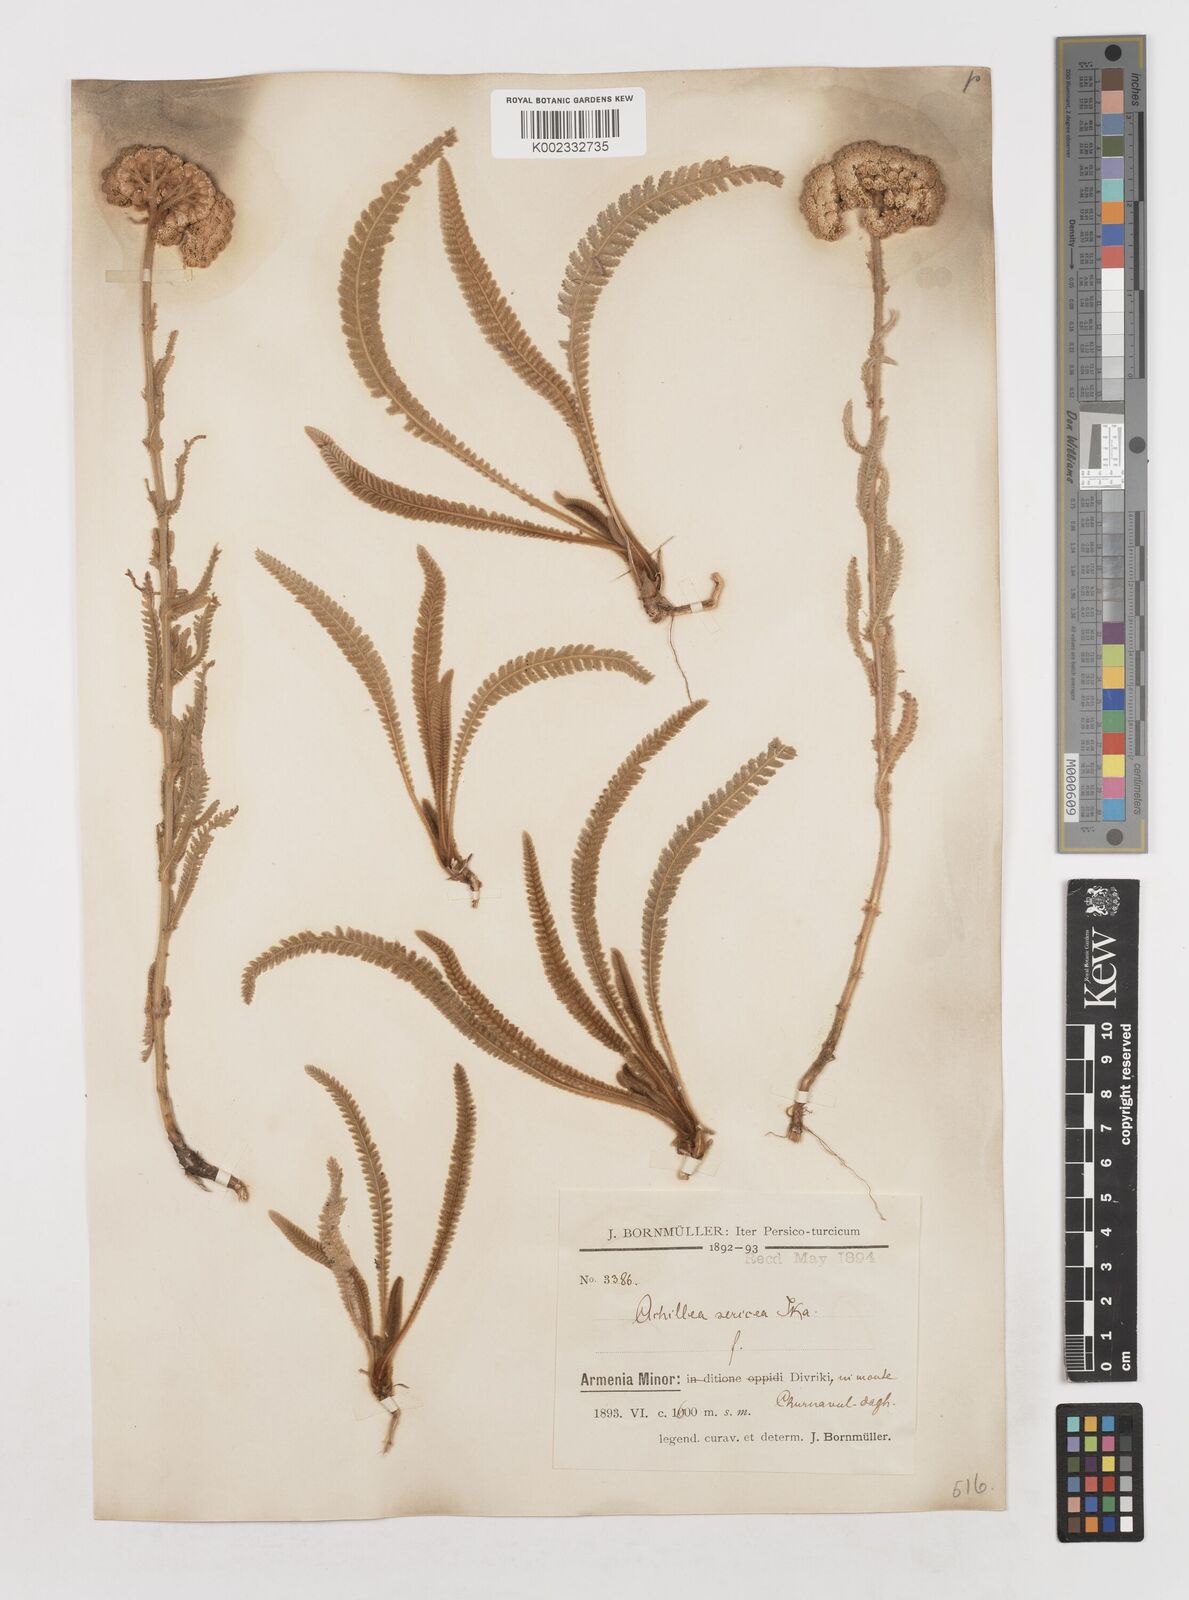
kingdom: Plantae
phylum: Tracheophyta
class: Magnoliopsida
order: Asterales
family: Asteraceae
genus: Achillea
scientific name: Achillea coarctata
